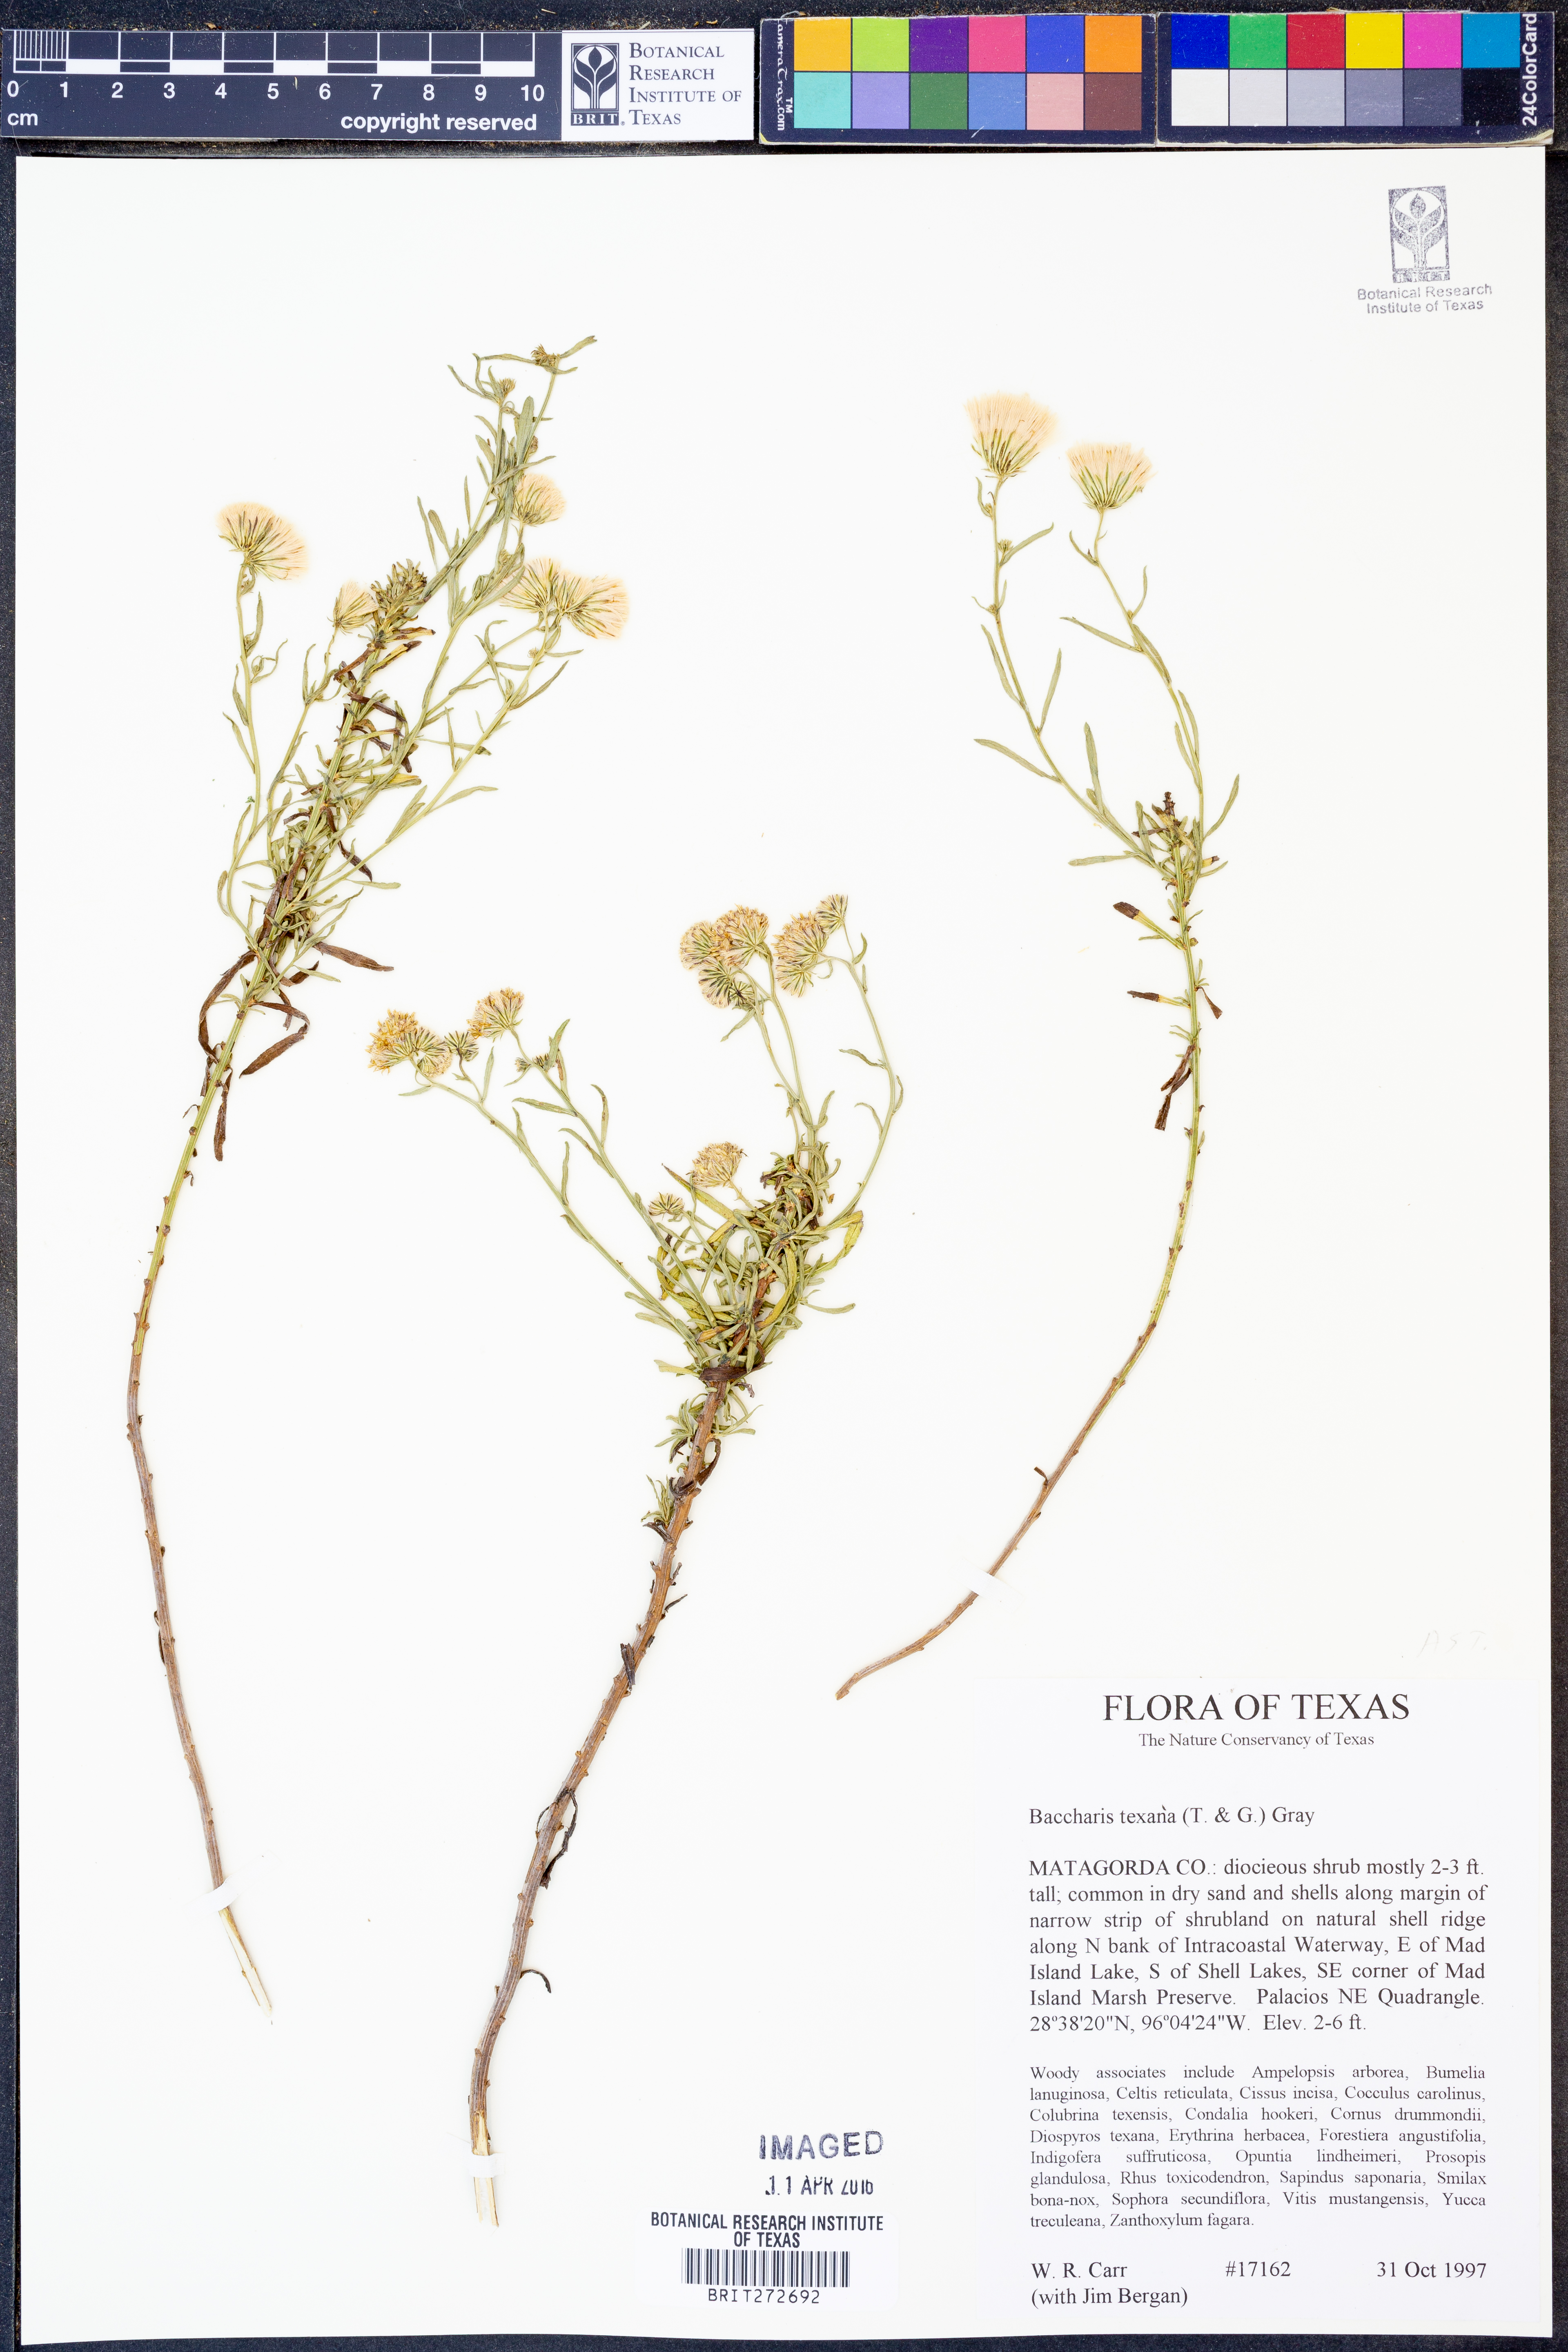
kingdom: Plantae
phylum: Tracheophyta
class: Magnoliopsida
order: Asterales
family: Asteraceae
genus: Baccharis
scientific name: Baccharis texana
